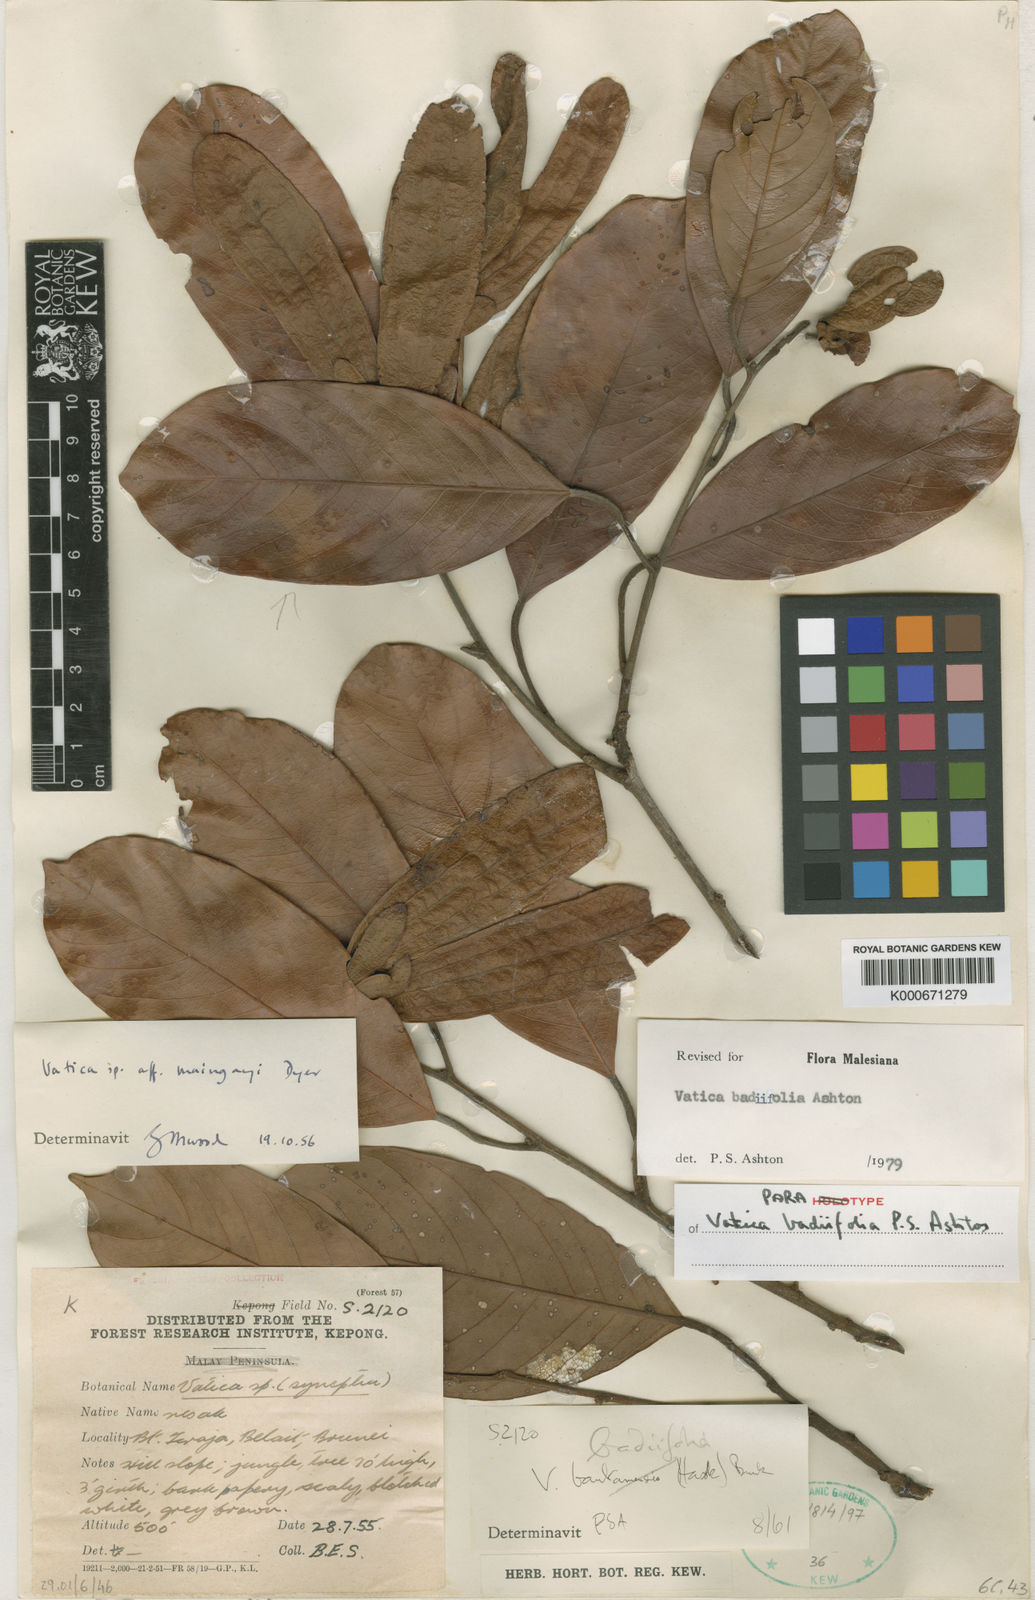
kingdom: Plantae
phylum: Tracheophyta
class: Magnoliopsida
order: Malvales
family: Dipterocarpaceae
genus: Vatica
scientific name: Vatica badiifolia
